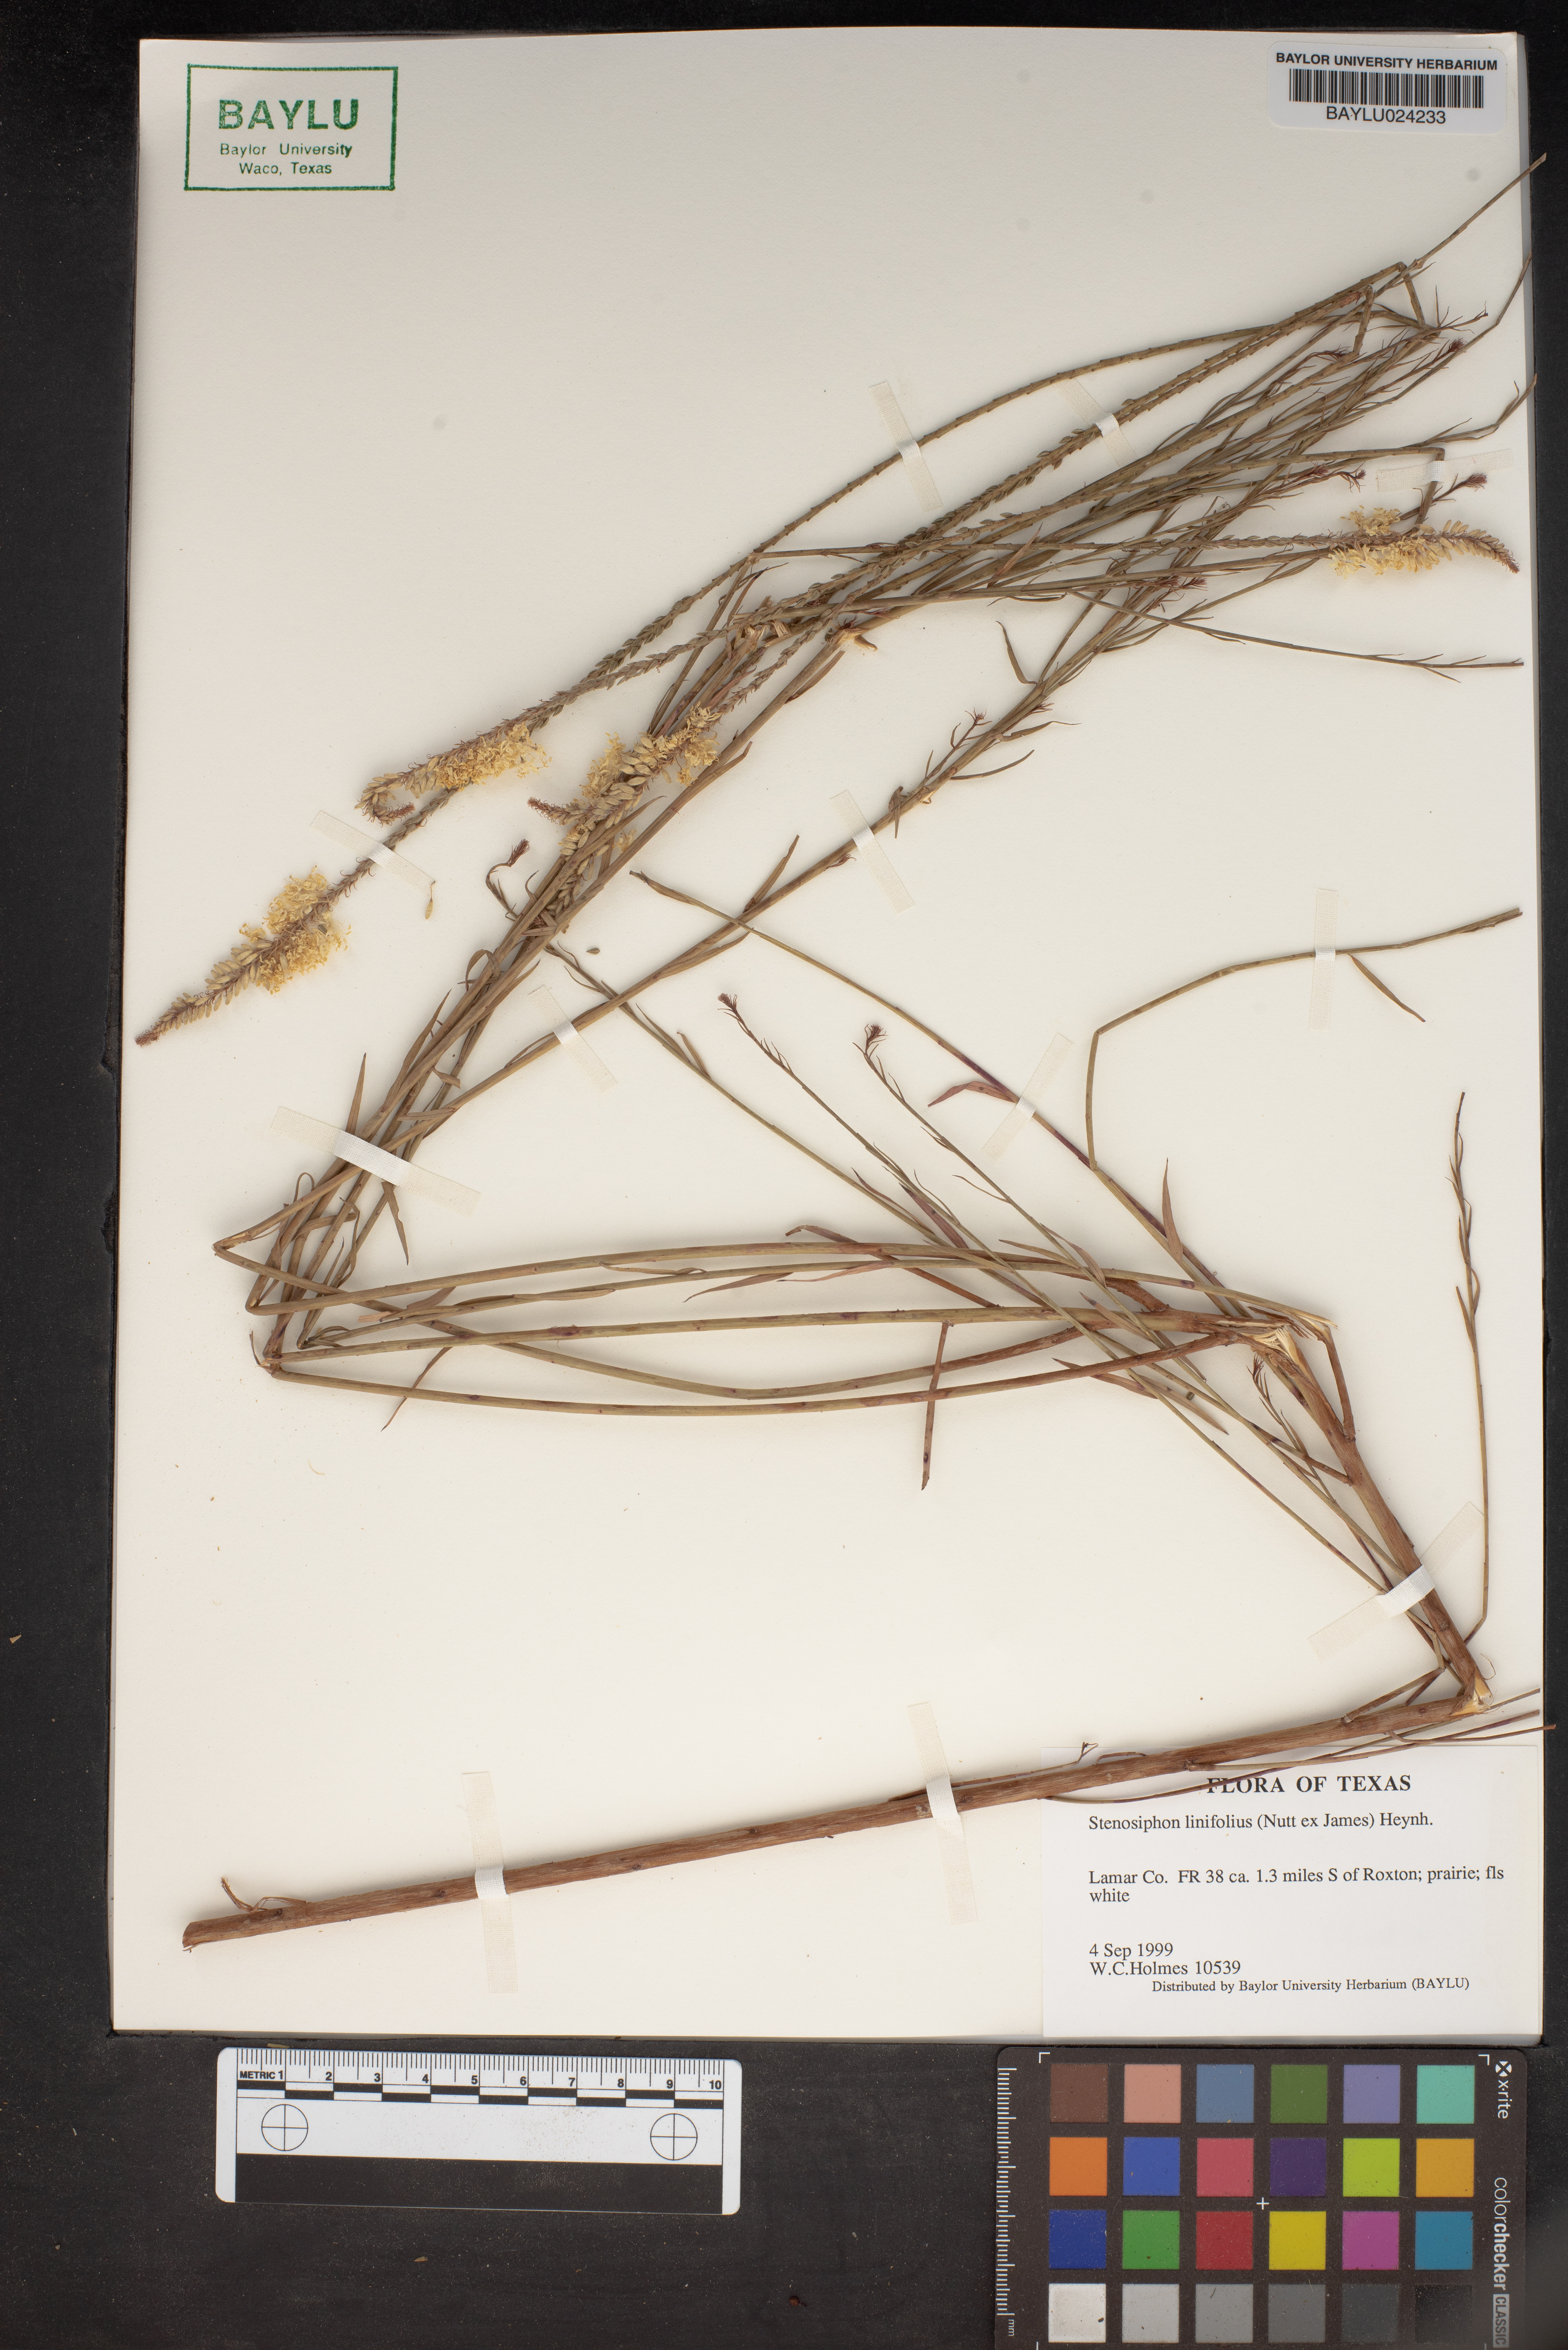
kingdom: Plantae
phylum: Tracheophyta
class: Magnoliopsida
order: Myrtales
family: Onagraceae
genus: Oenothera
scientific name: Oenothera glaucifolia
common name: False gaura
